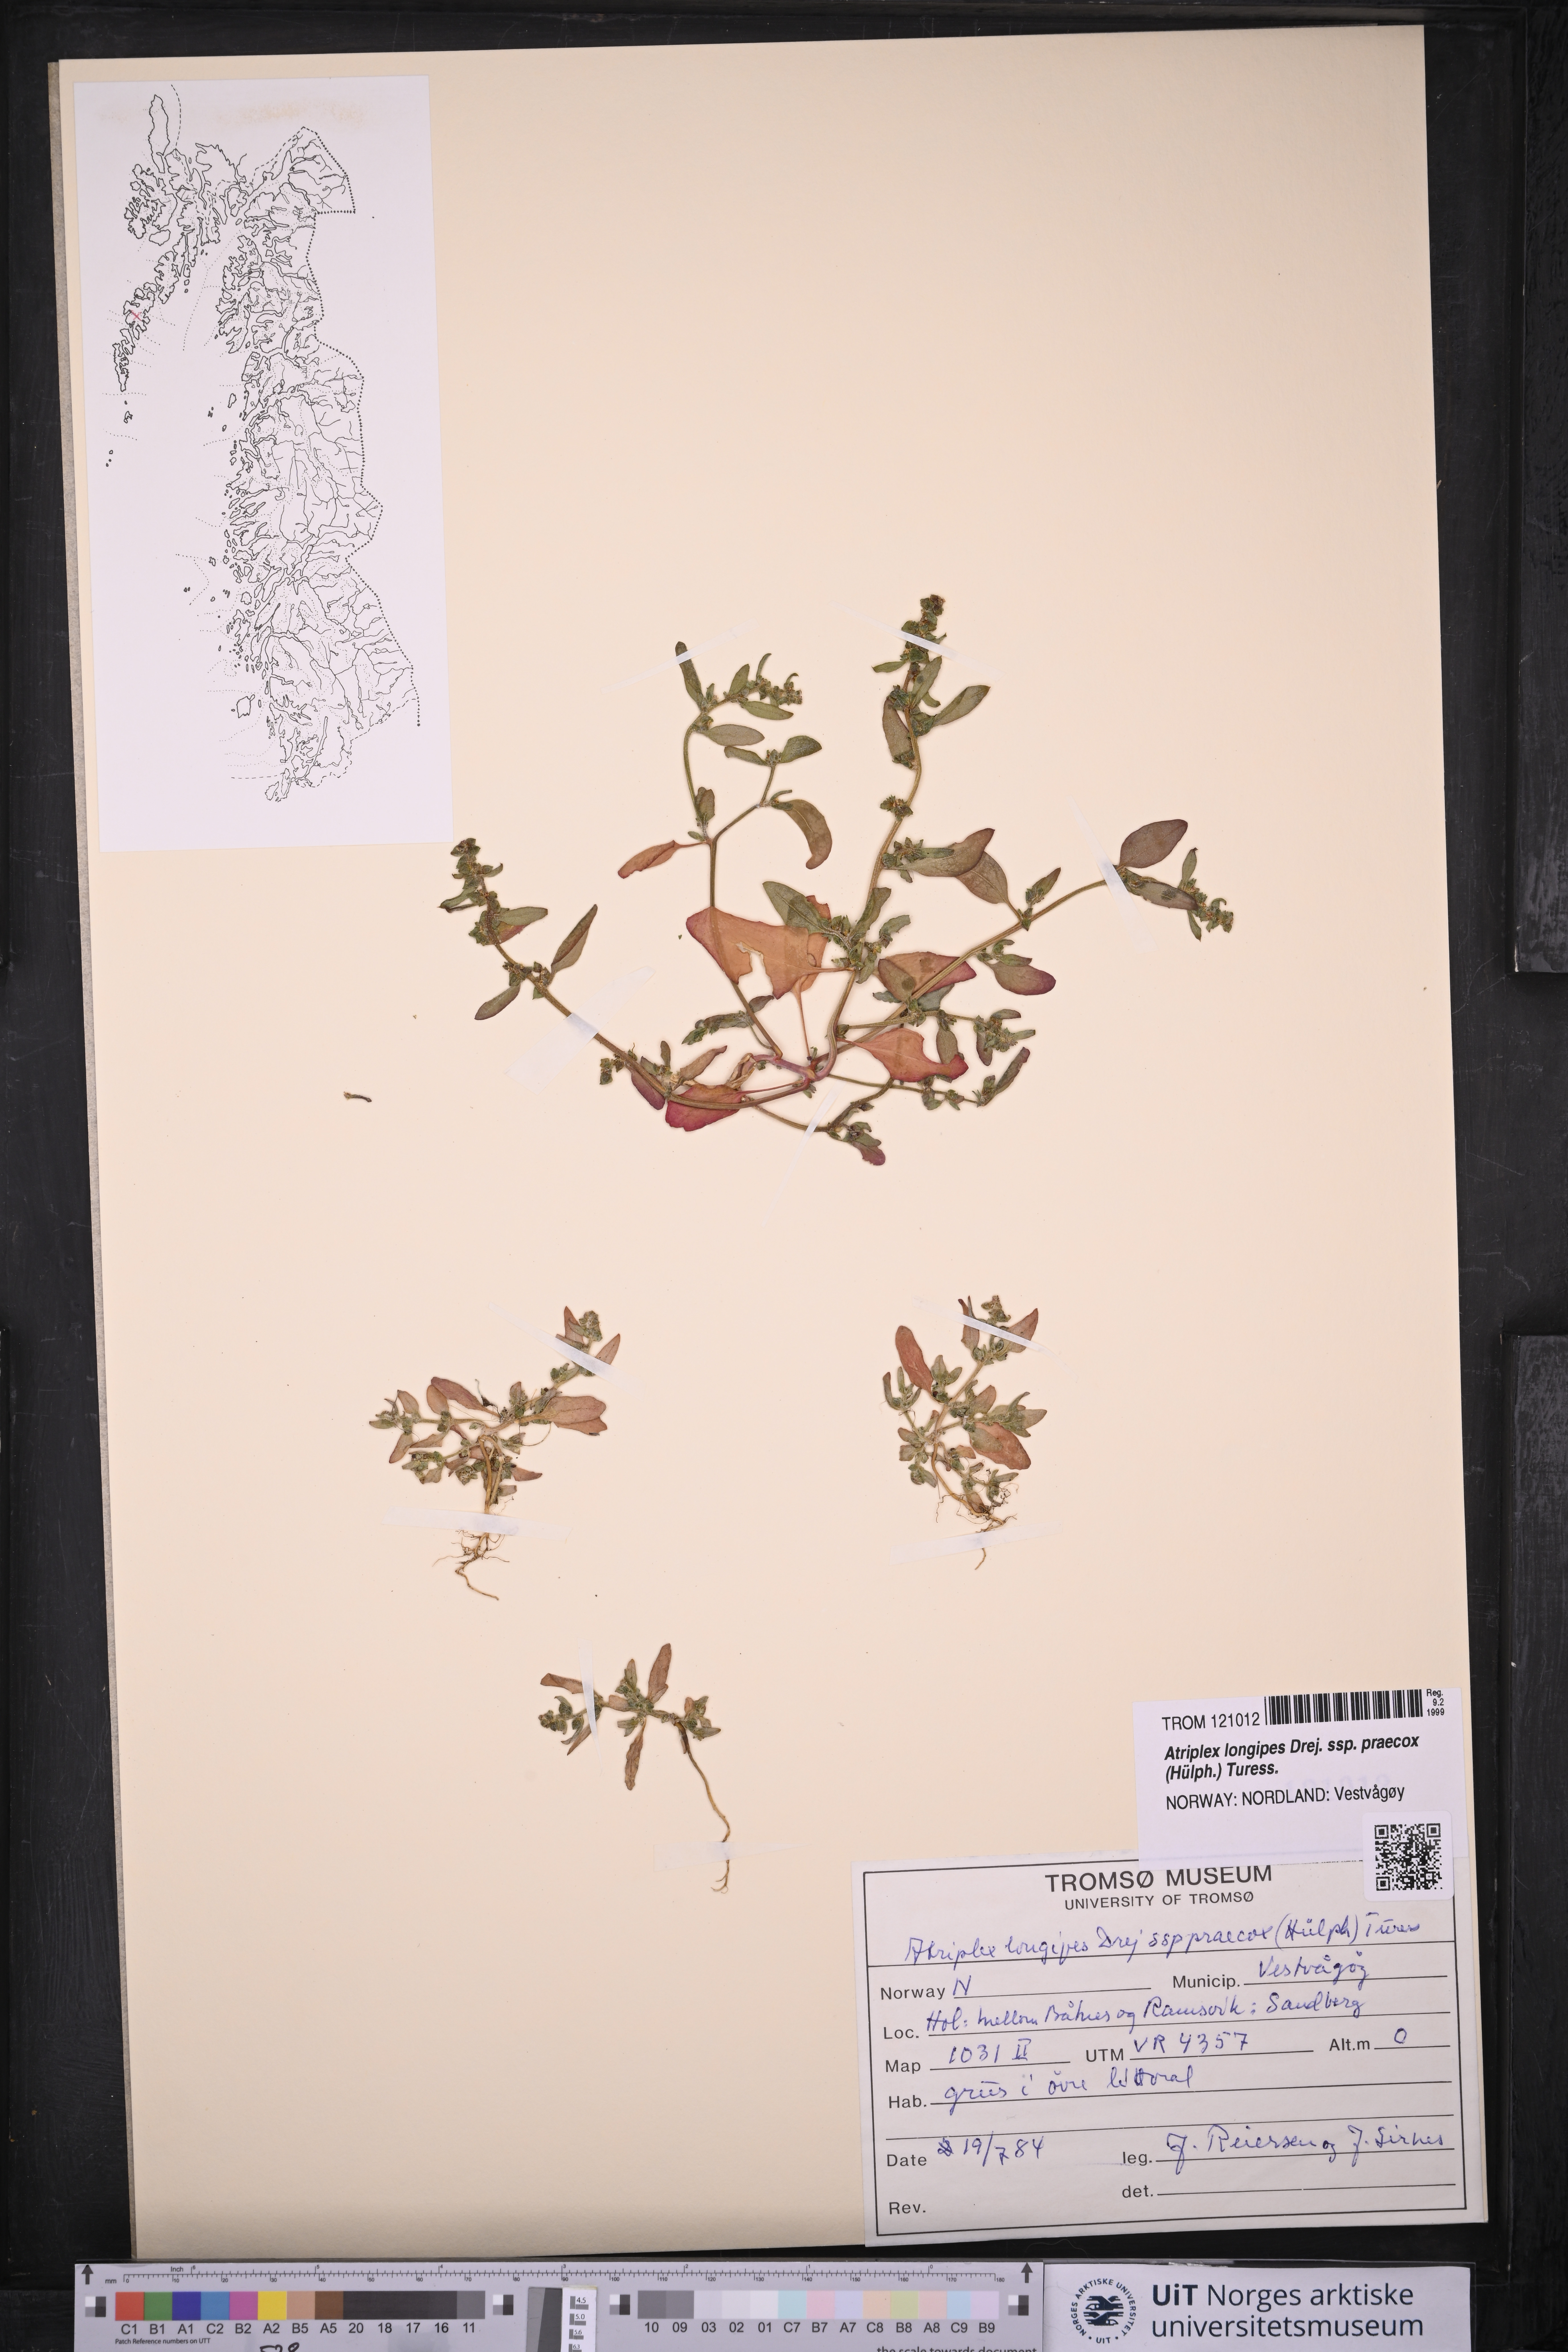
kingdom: Plantae
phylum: Tracheophyta
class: Magnoliopsida
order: Caryophyllales
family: Amaranthaceae
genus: Atriplex
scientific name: Atriplex praecox
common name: Early orache
